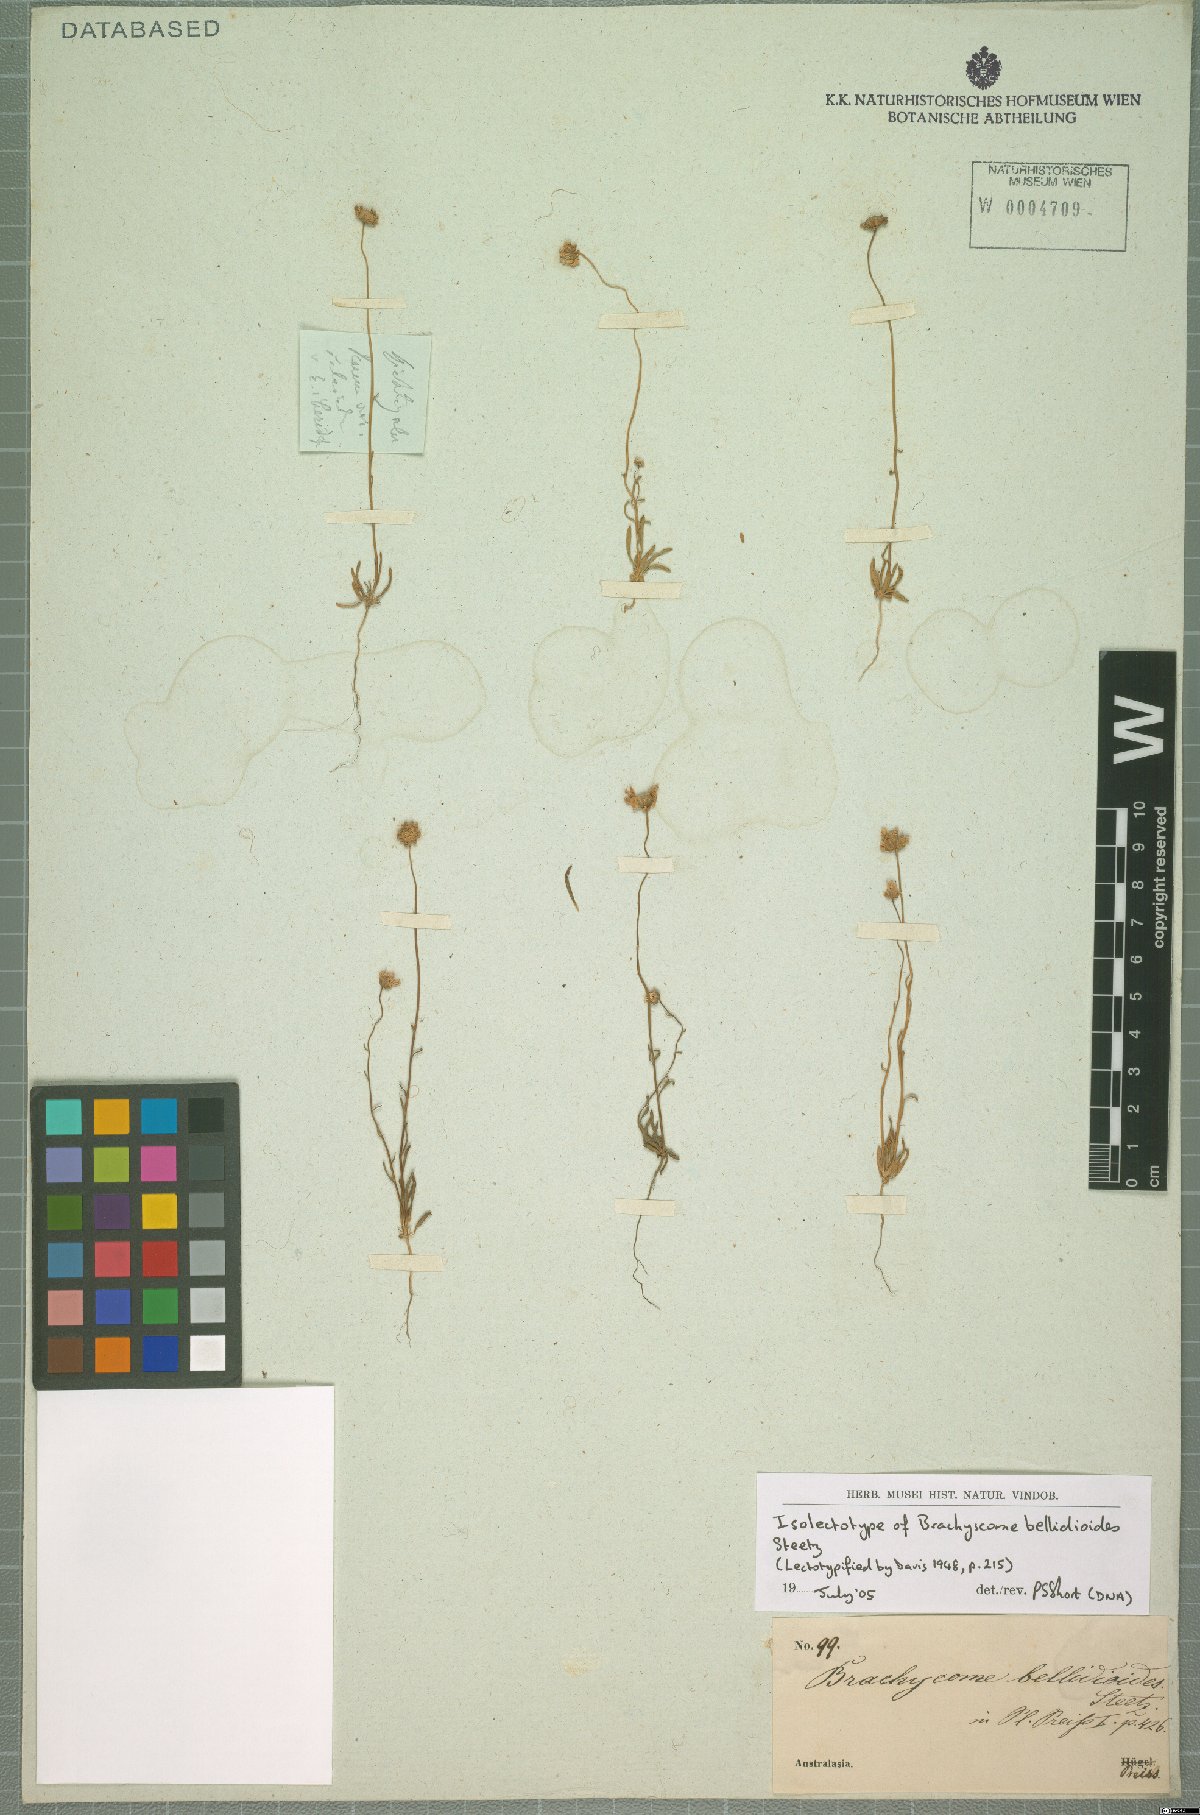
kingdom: Plantae
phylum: Tracheophyta
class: Magnoliopsida
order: Asterales
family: Asteraceae
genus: Brachyscome
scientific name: Brachyscome bellidioides
